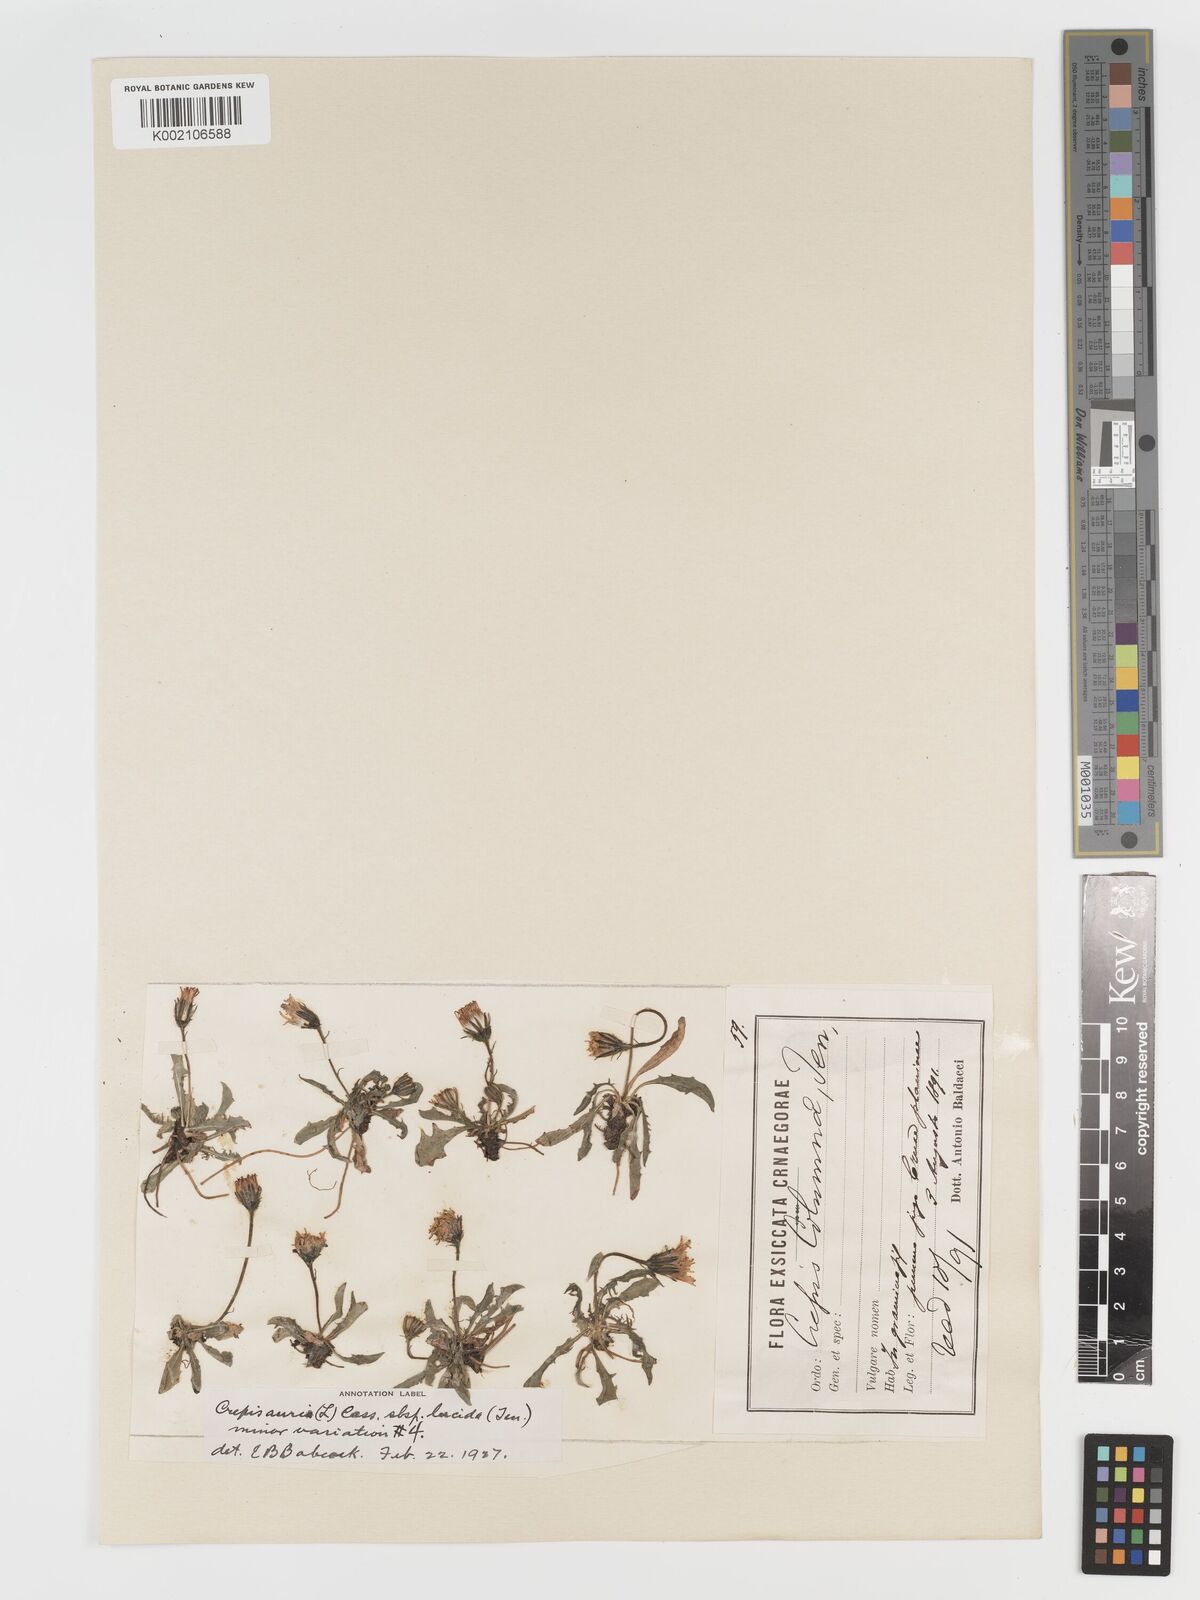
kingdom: Plantae
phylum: Tracheophyta
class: Magnoliopsida
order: Asterales
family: Asteraceae
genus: Crepis
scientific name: Crepis aurea
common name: Golden hawk's-beard
